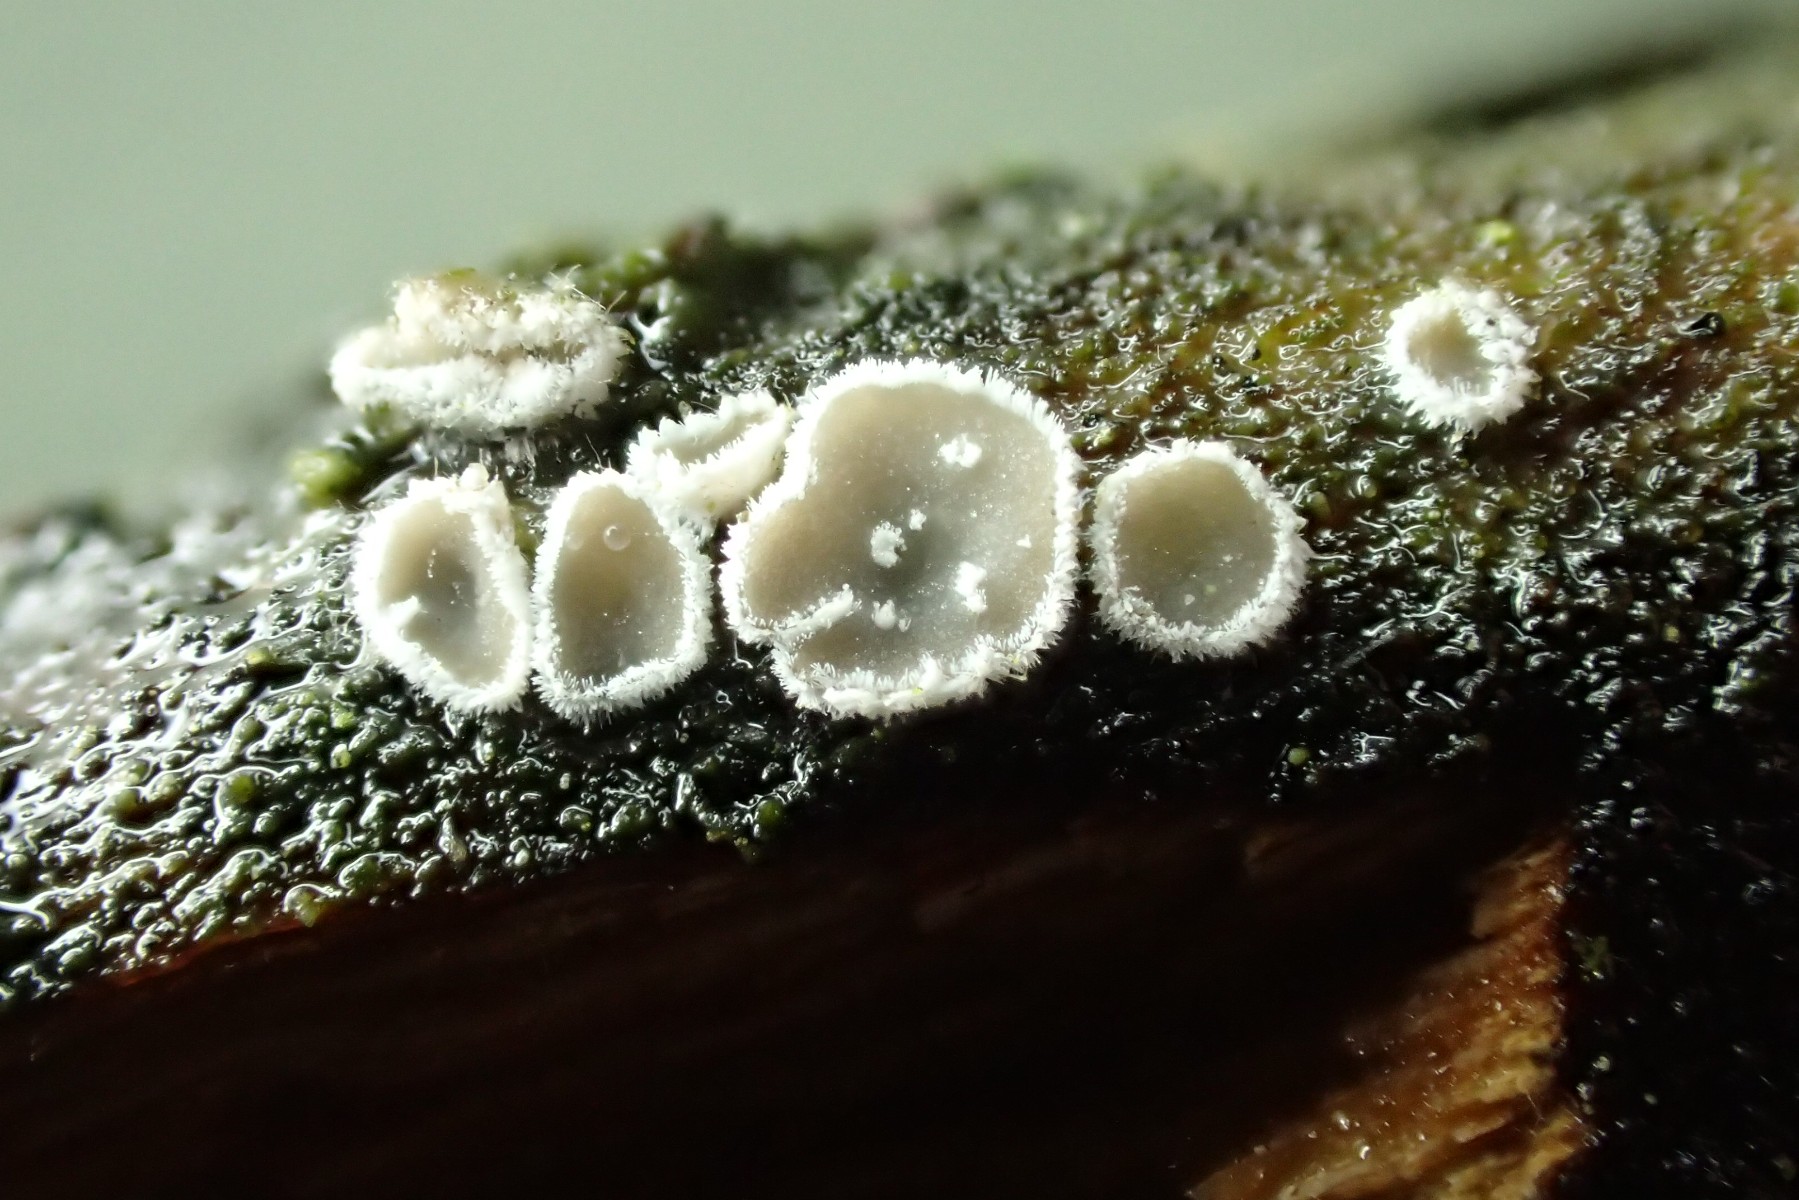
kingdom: Fungi
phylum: Basidiomycota
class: Agaricomycetes
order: Agaricales
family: Niaceae
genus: Lachnella
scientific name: Lachnella alboviolascens
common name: grå frynserede
